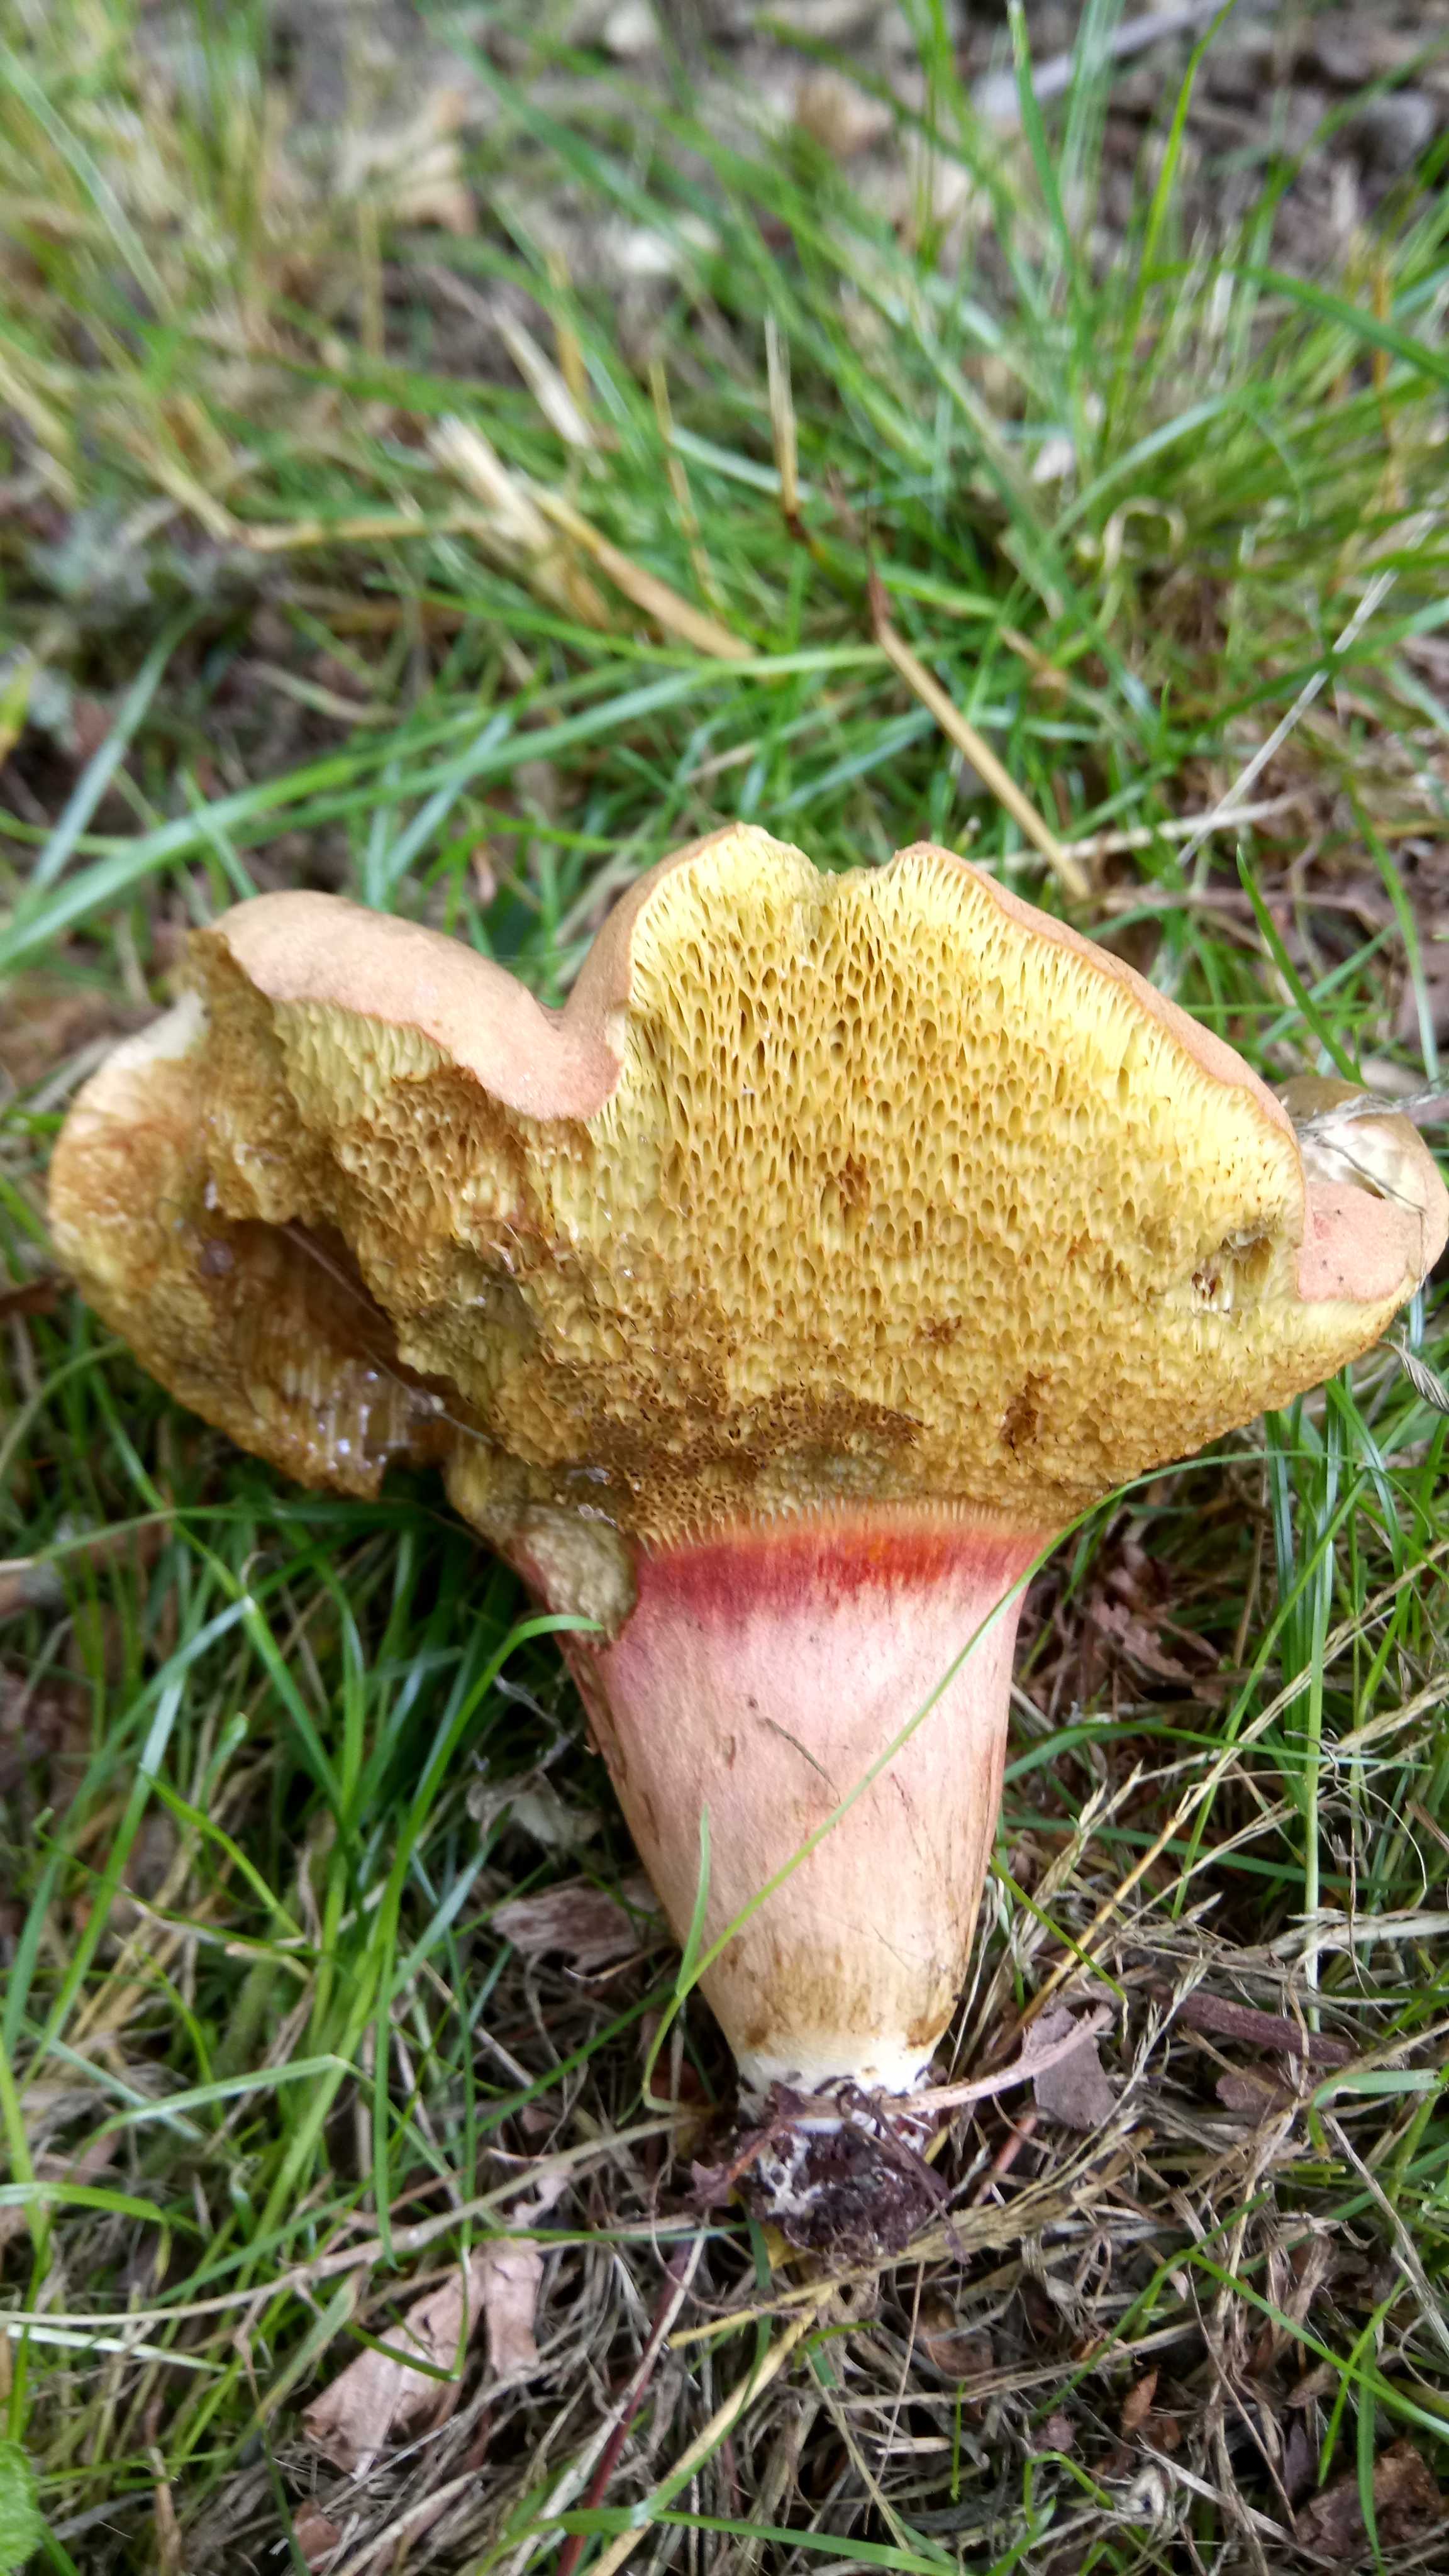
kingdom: Fungi
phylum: Basidiomycota
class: Agaricomycetes
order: Boletales
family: Boletaceae
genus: Hortiboletus
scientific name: Hortiboletus bubalinus
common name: aurora-rørhat
